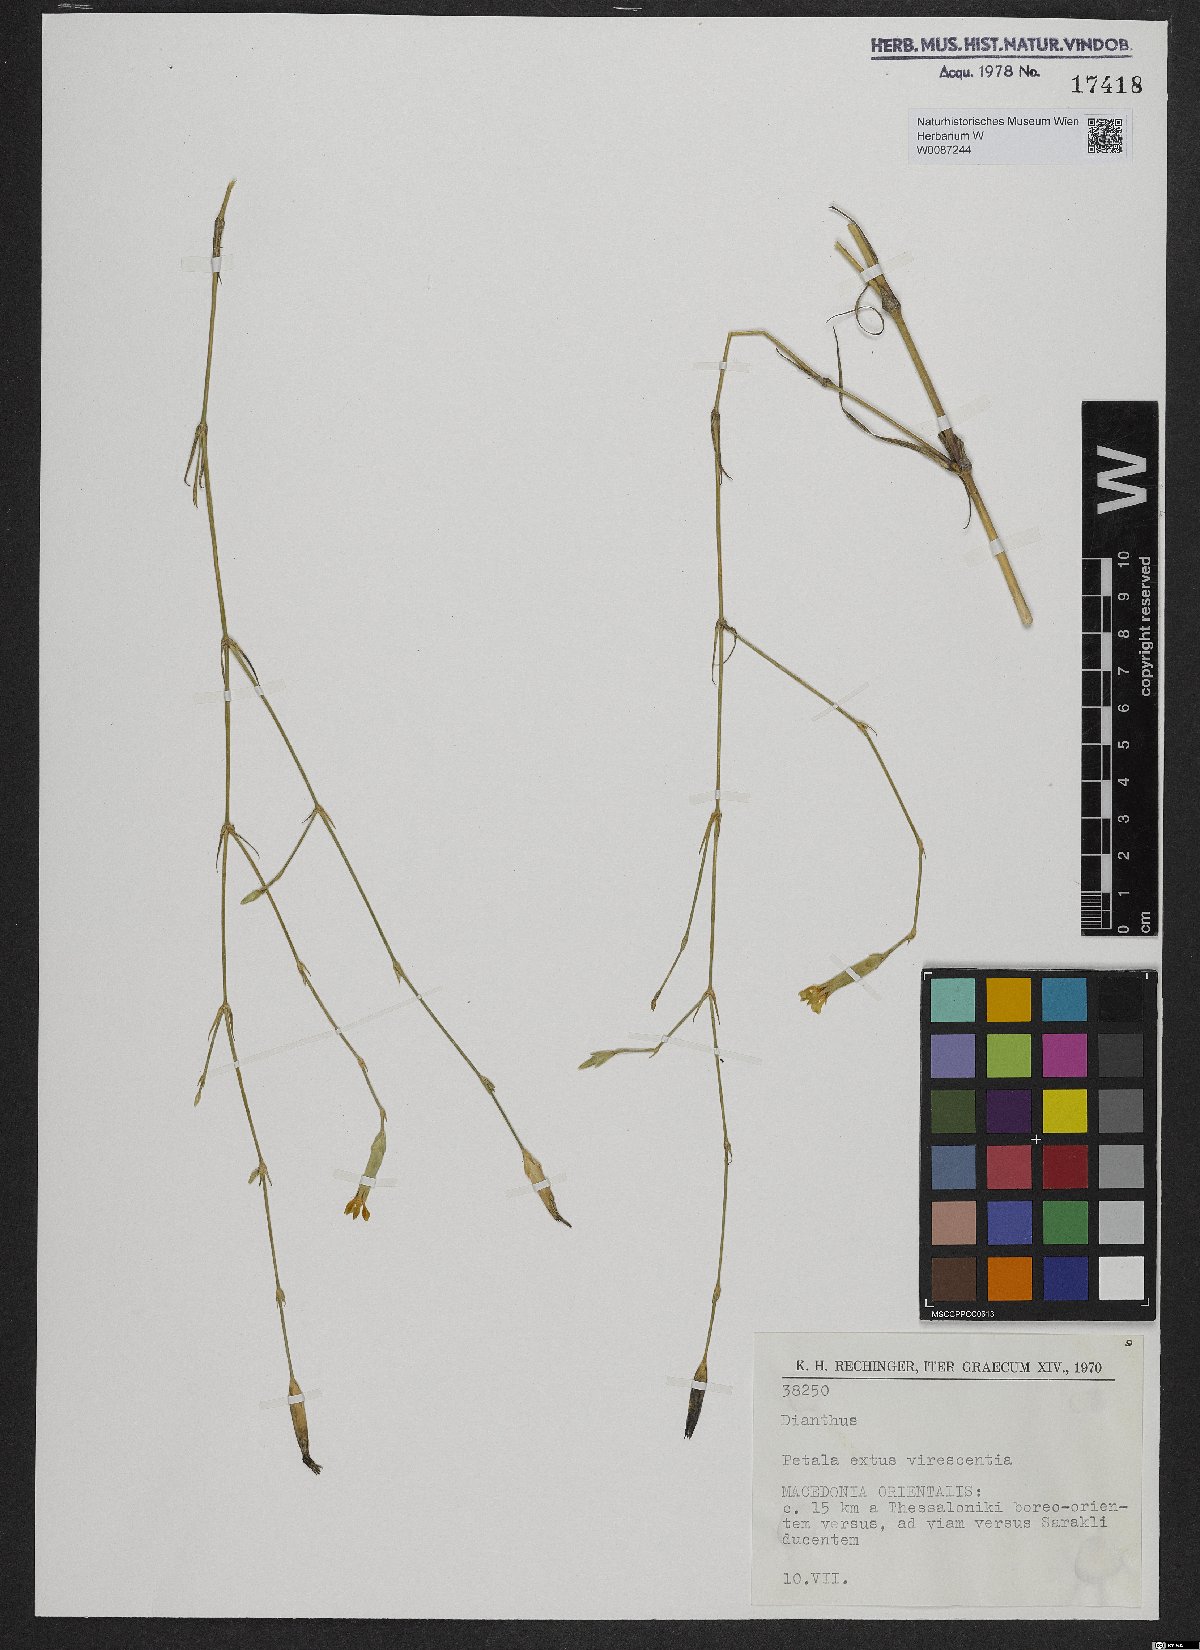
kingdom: Plantae
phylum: Tracheophyta
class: Magnoliopsida
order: Caryophyllales
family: Caryophyllaceae
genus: Dianthus
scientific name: Dianthus
